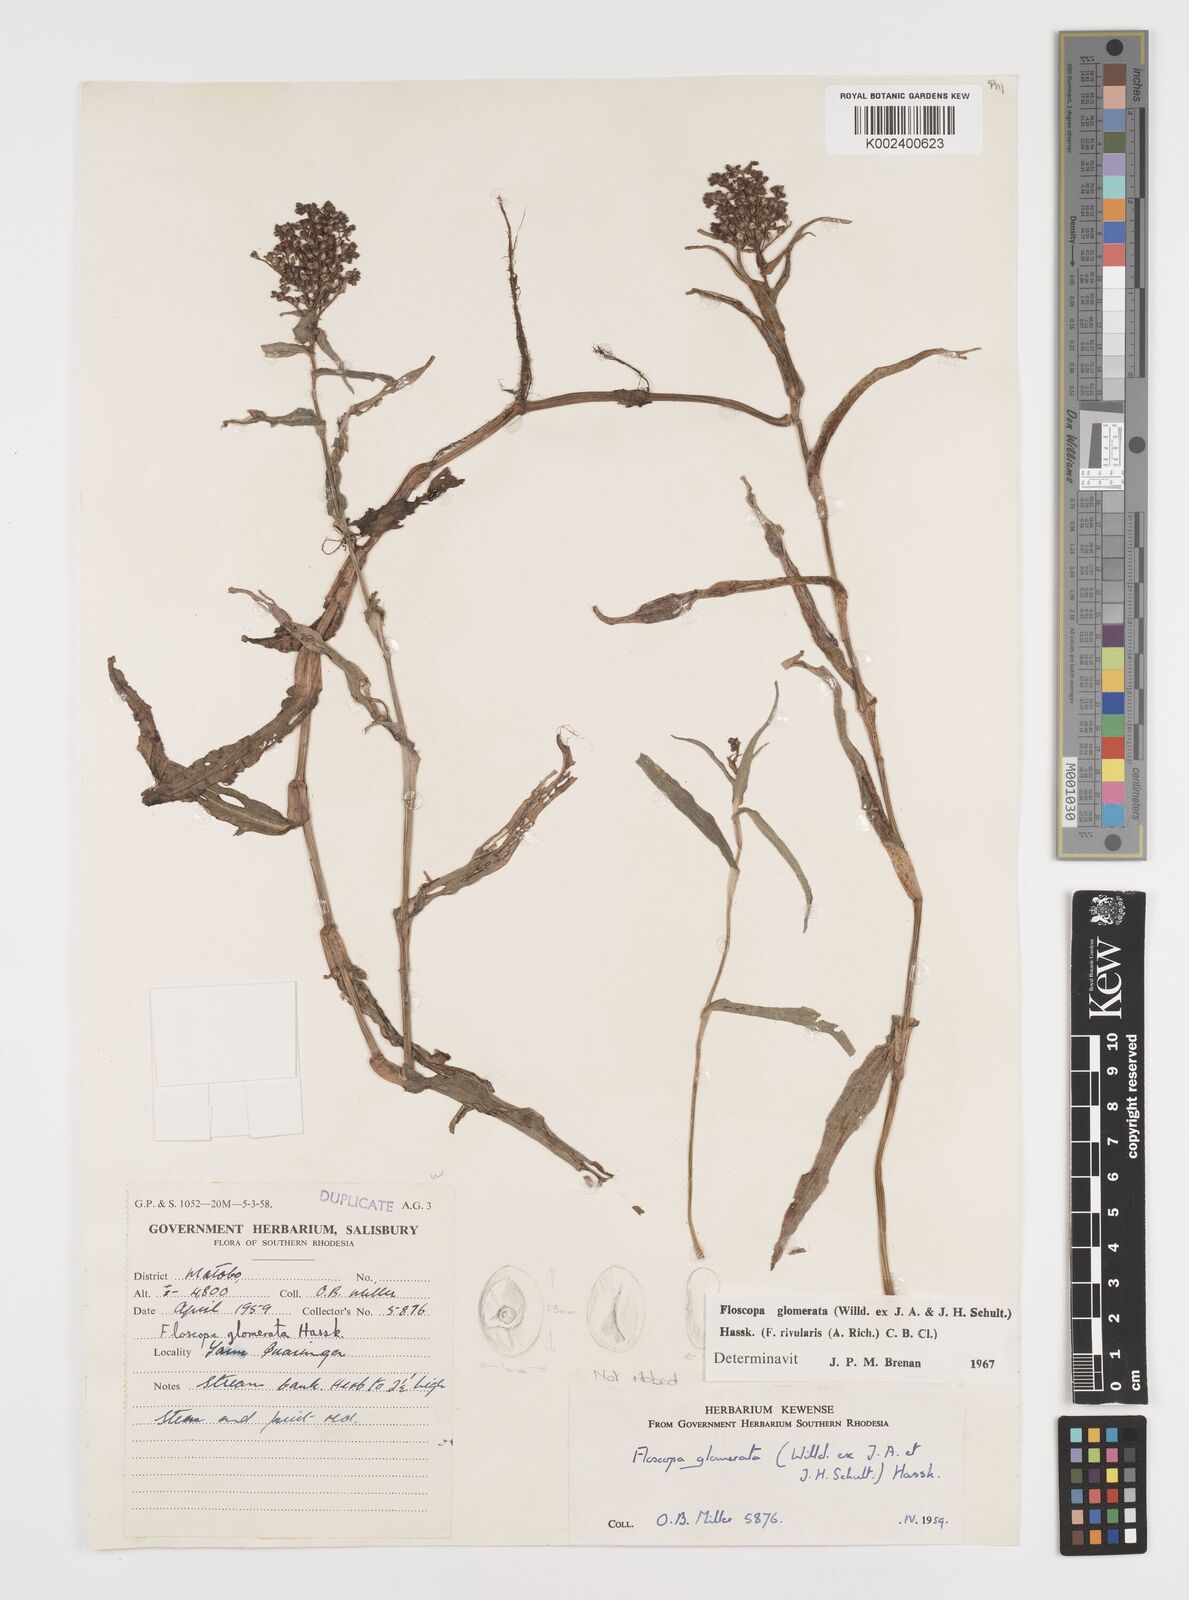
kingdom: Plantae
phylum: Tracheophyta
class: Liliopsida
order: Commelinales
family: Commelinaceae
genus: Floscopa
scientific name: Floscopa glomerata
